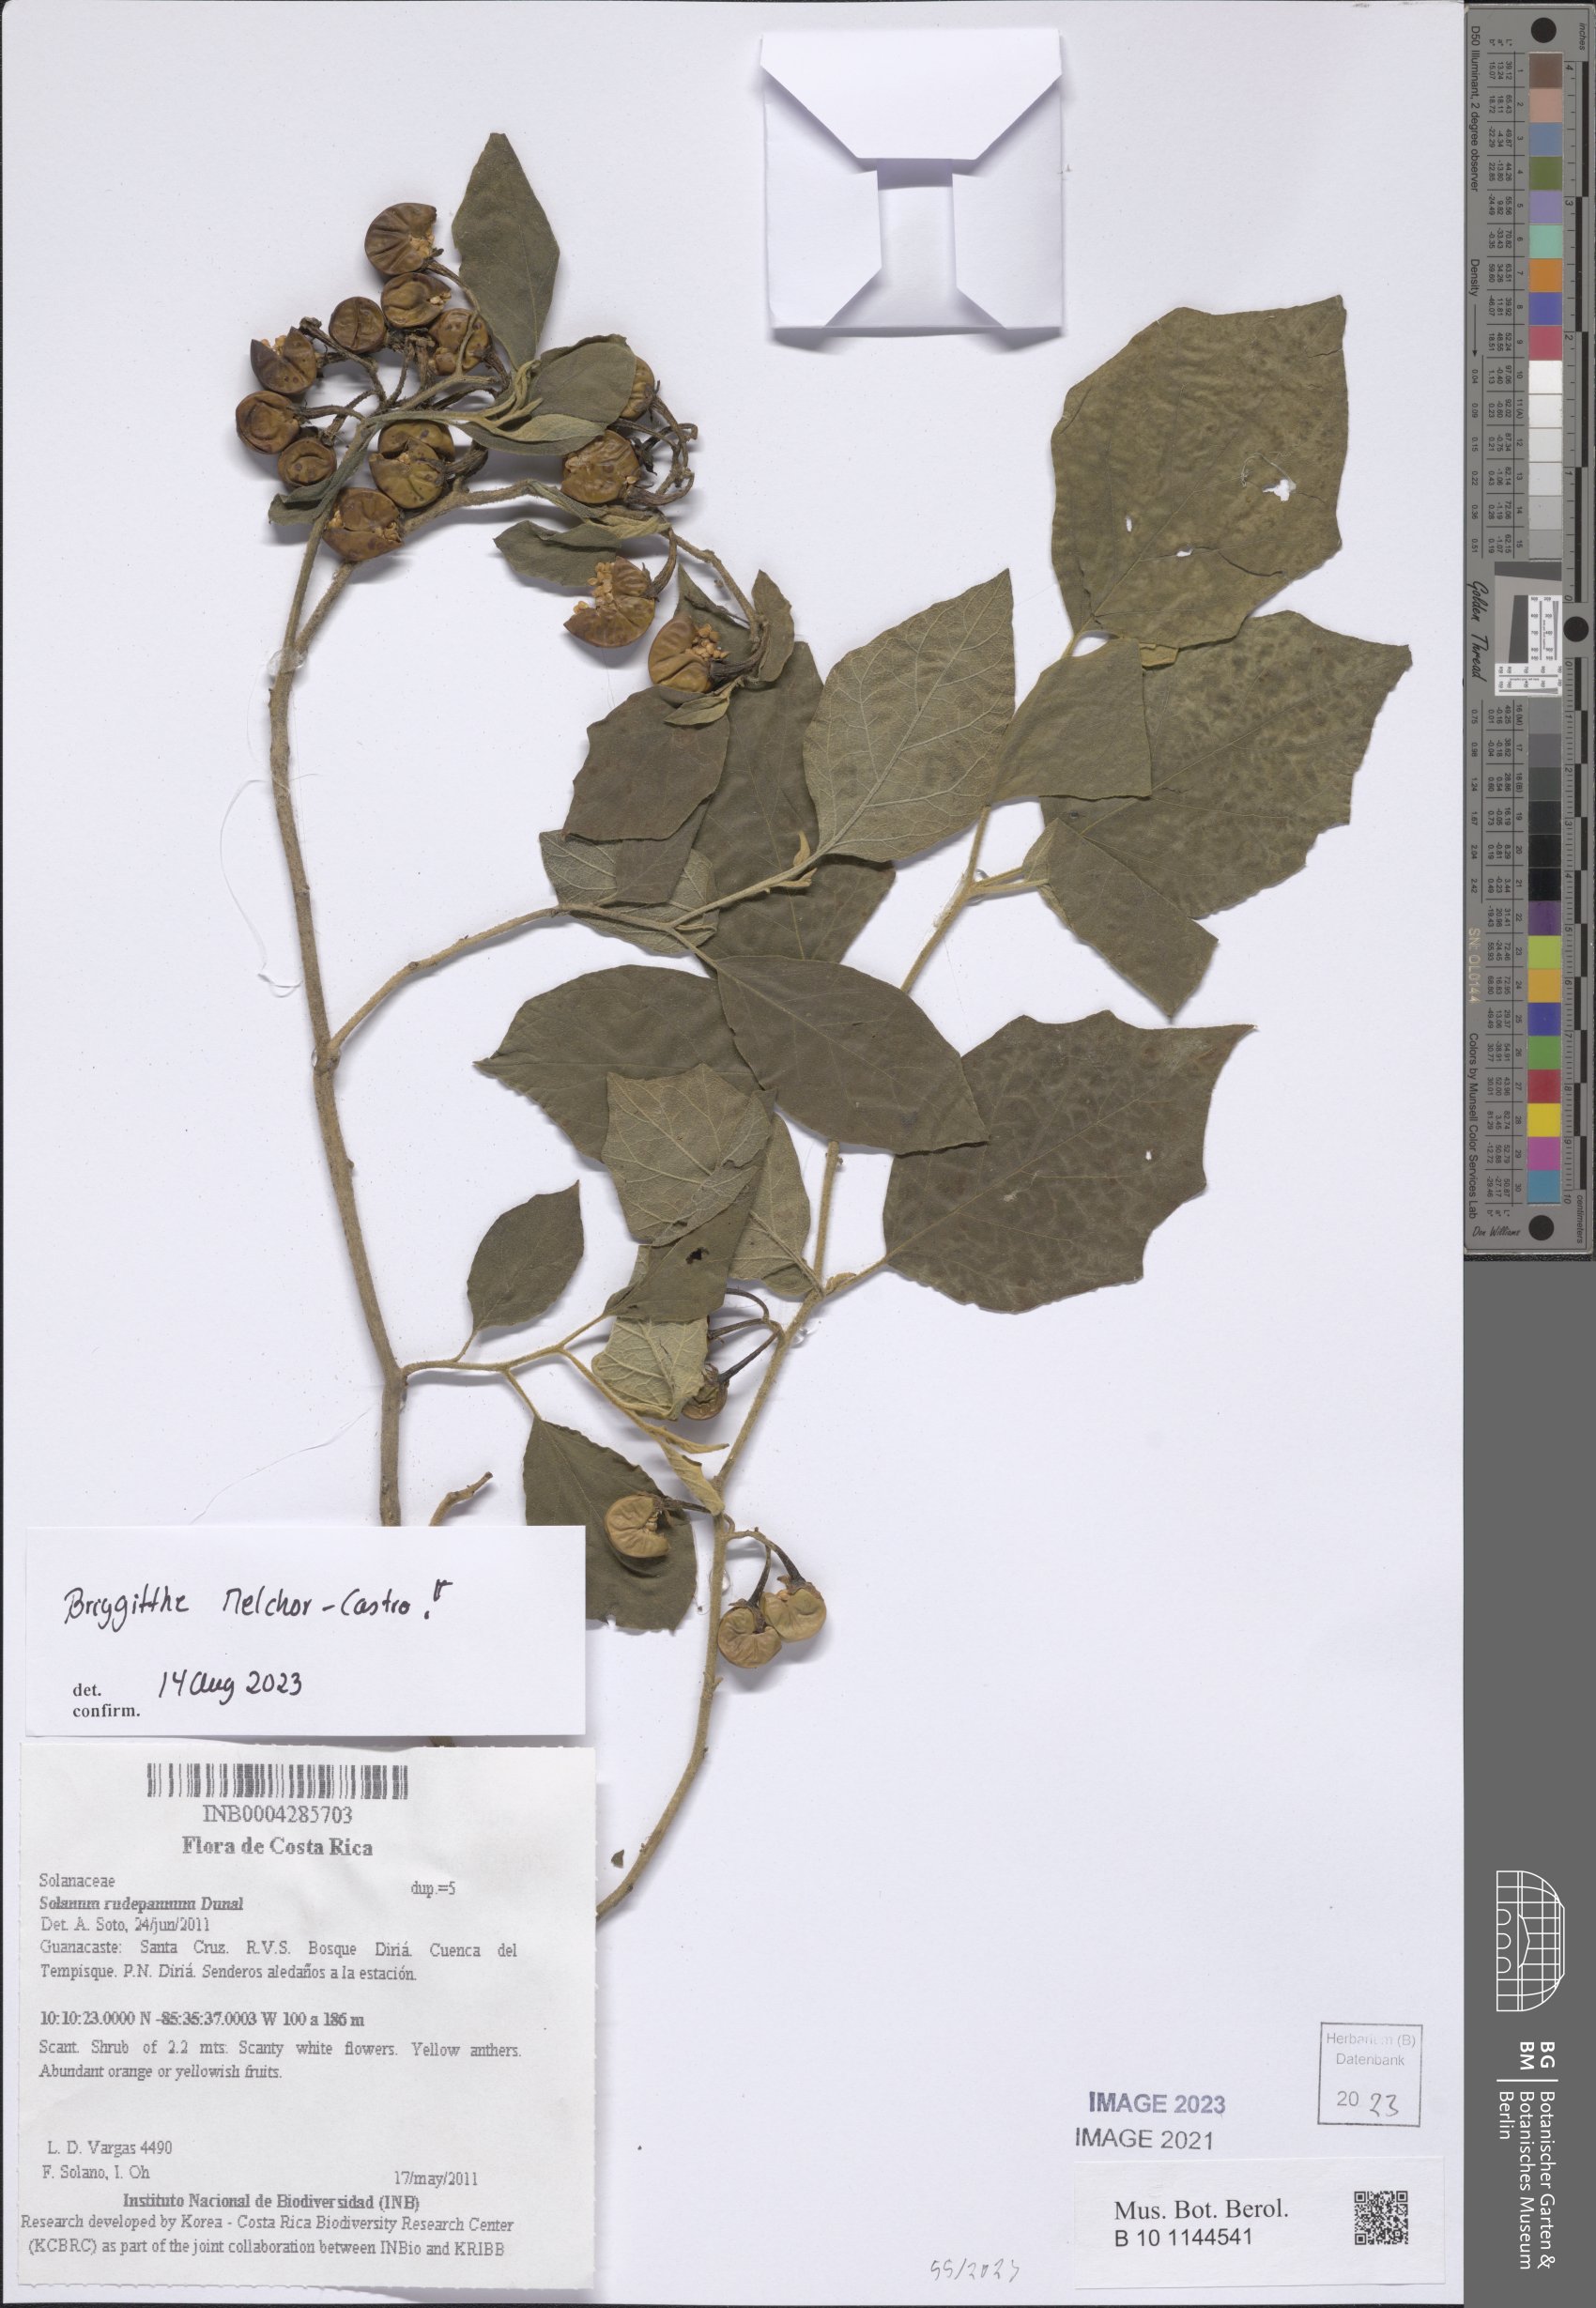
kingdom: Plantae
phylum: Tracheophyta
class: Magnoliopsida
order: Solanales
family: Solanaceae
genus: Solanum
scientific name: Solanum rude-pannum
